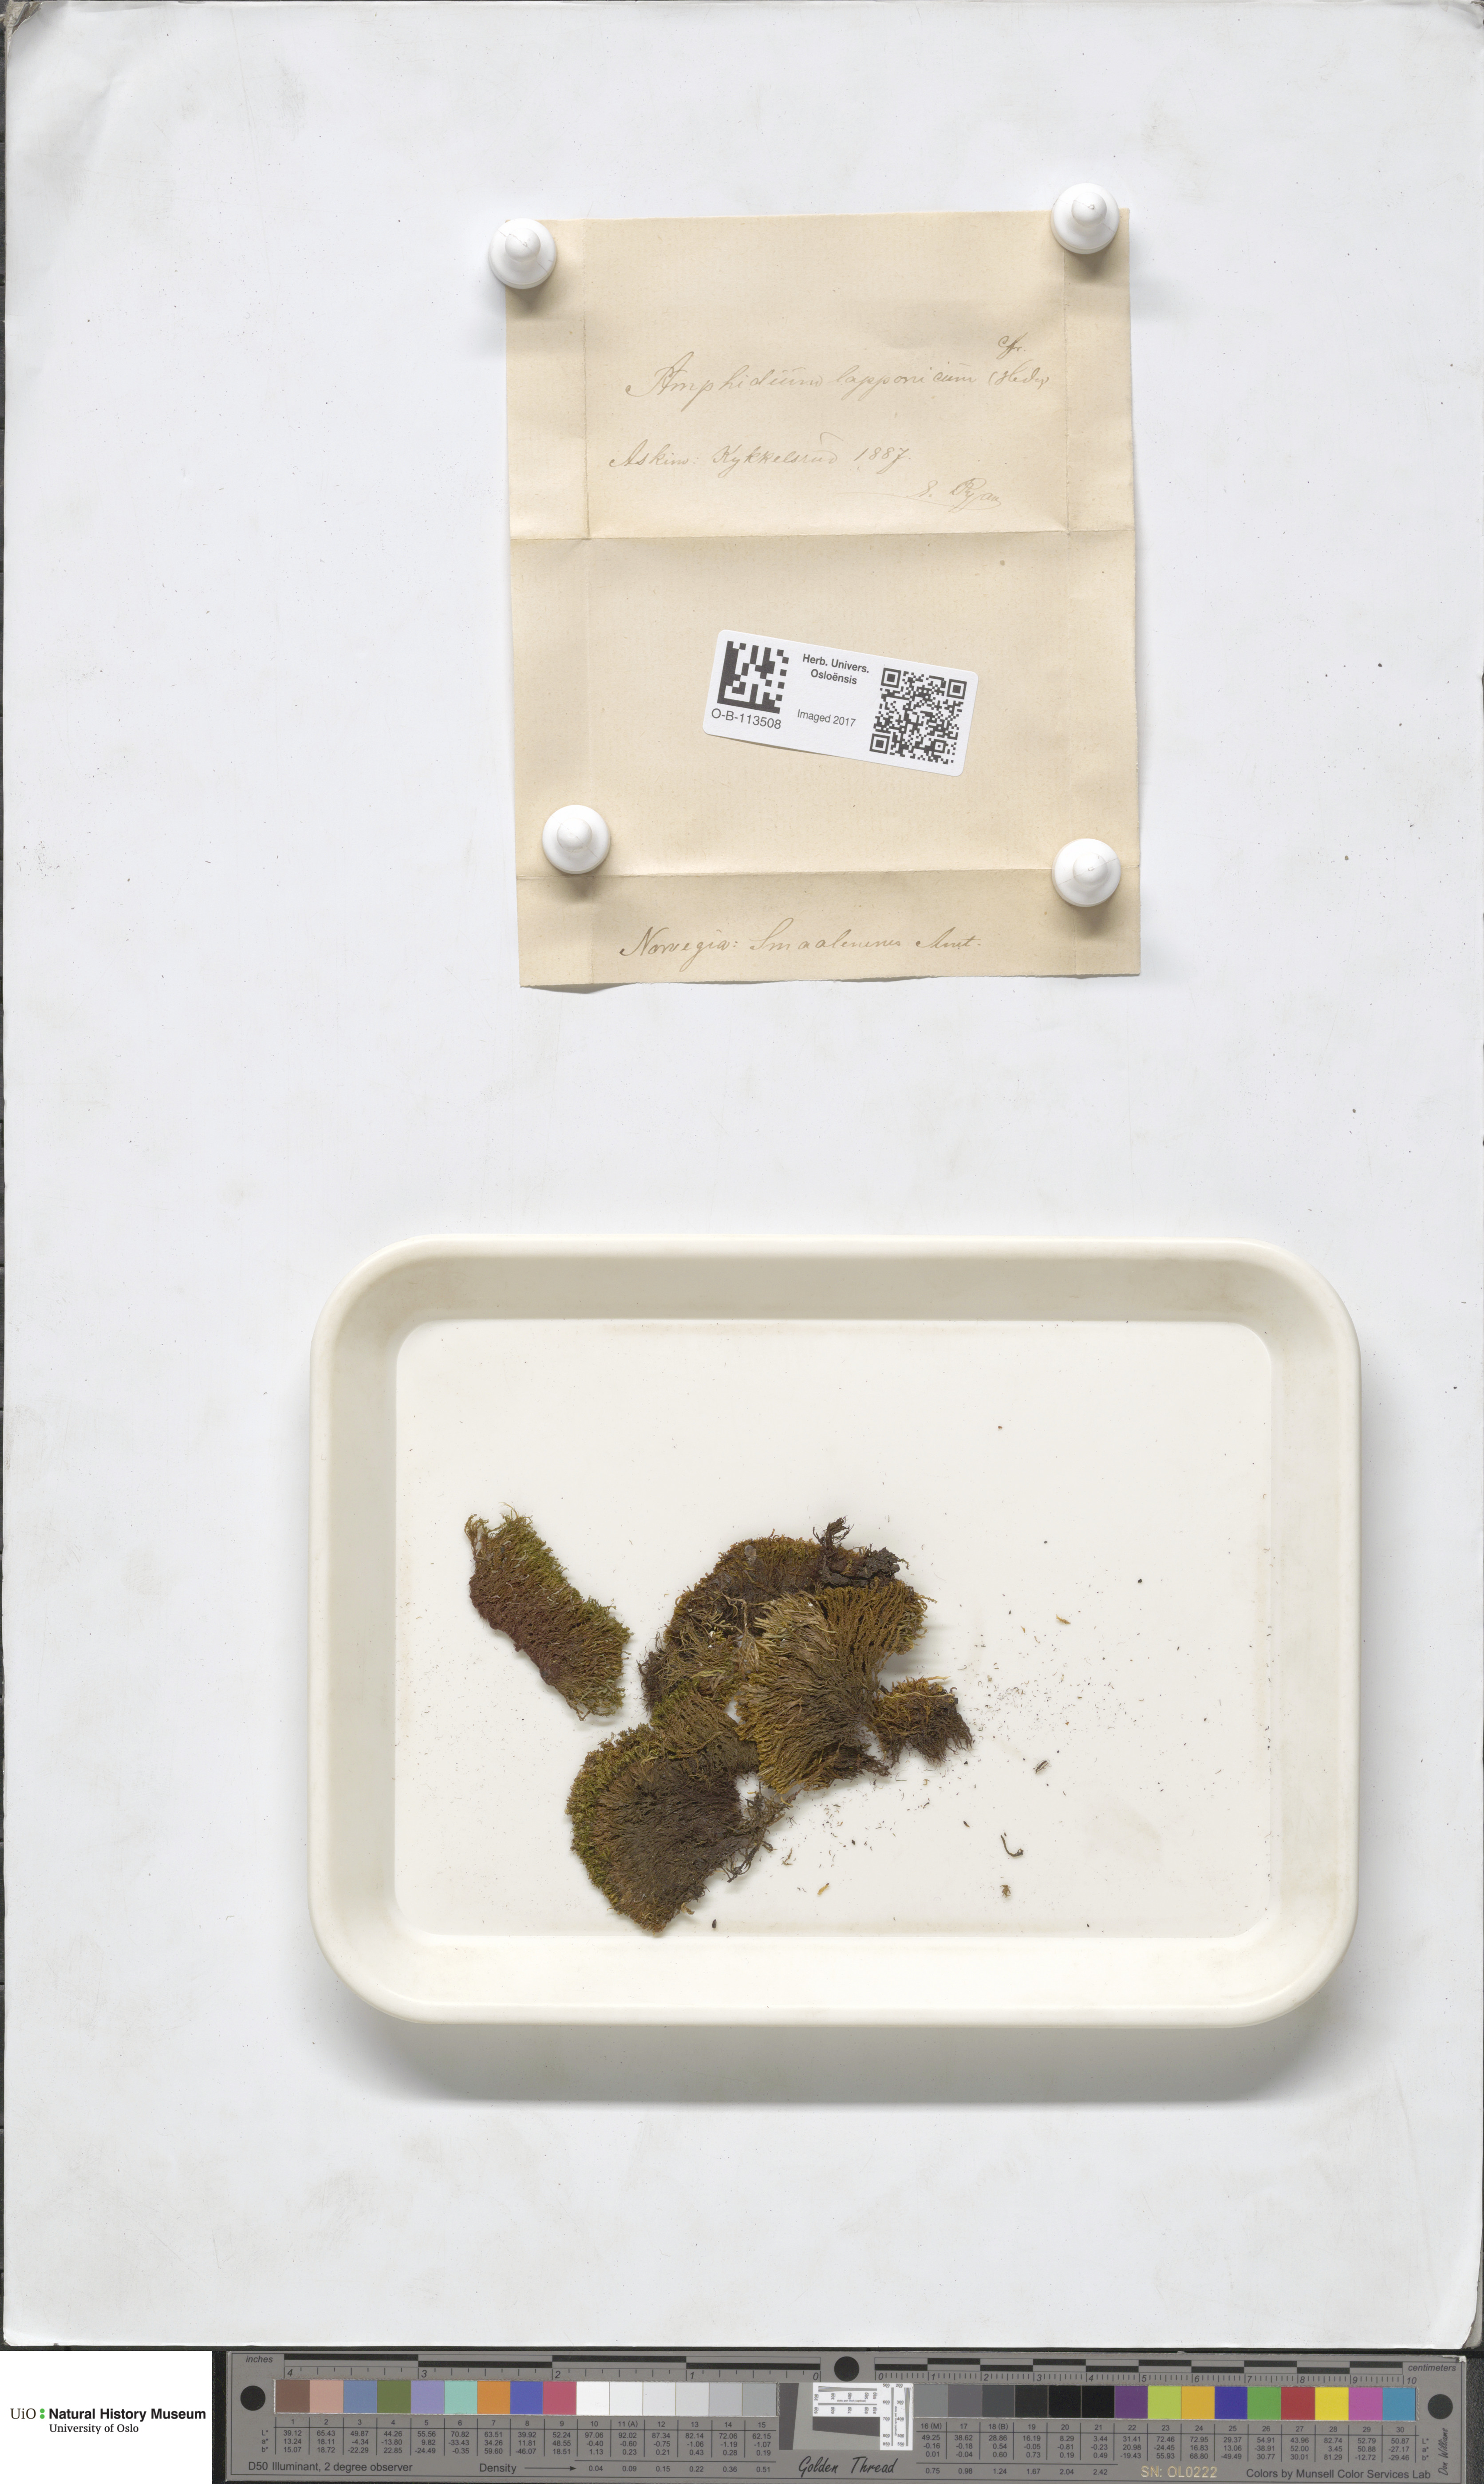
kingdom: Plantae
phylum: Bryophyta
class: Bryopsida
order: Dicranales
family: Amphidiaceae
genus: Amphidium
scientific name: Amphidium lapponicum
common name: Lapland yoke moss
